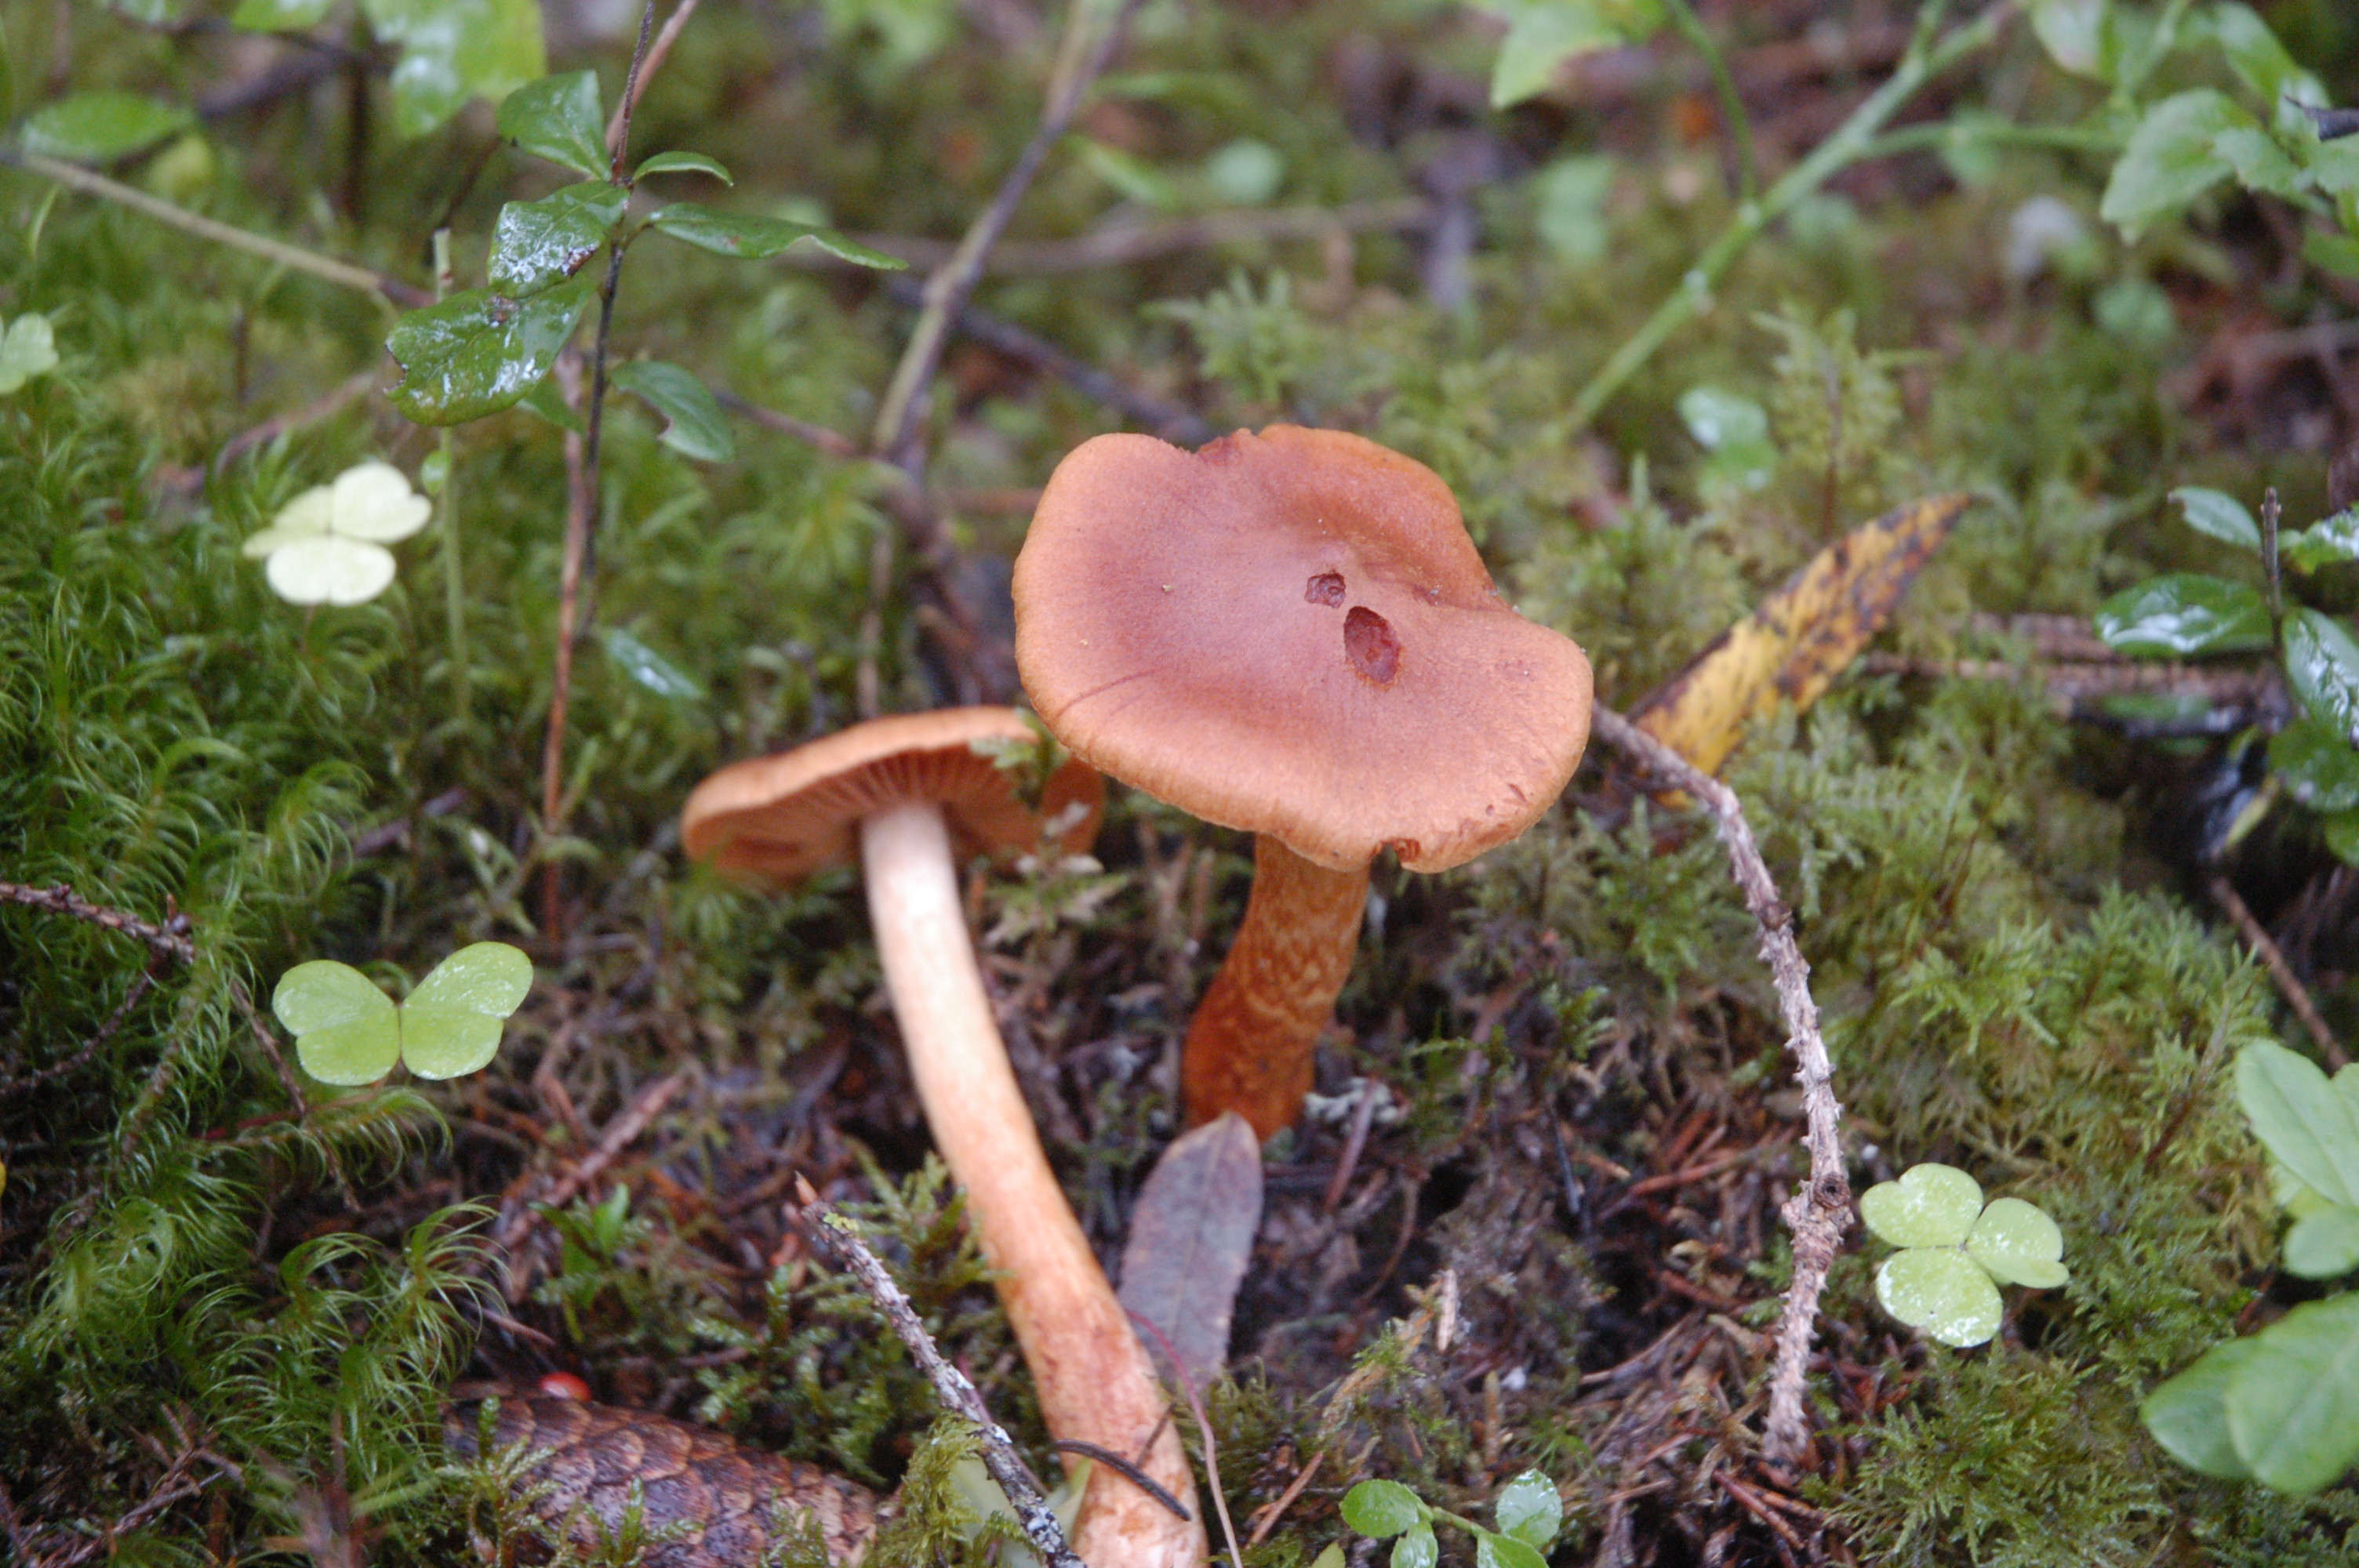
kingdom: Fungi
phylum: Basidiomycota
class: Agaricomycetes
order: Agaricales
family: Cortinariaceae
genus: Cortinarius
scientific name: Cortinarius rubellus
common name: Deadly webcap
